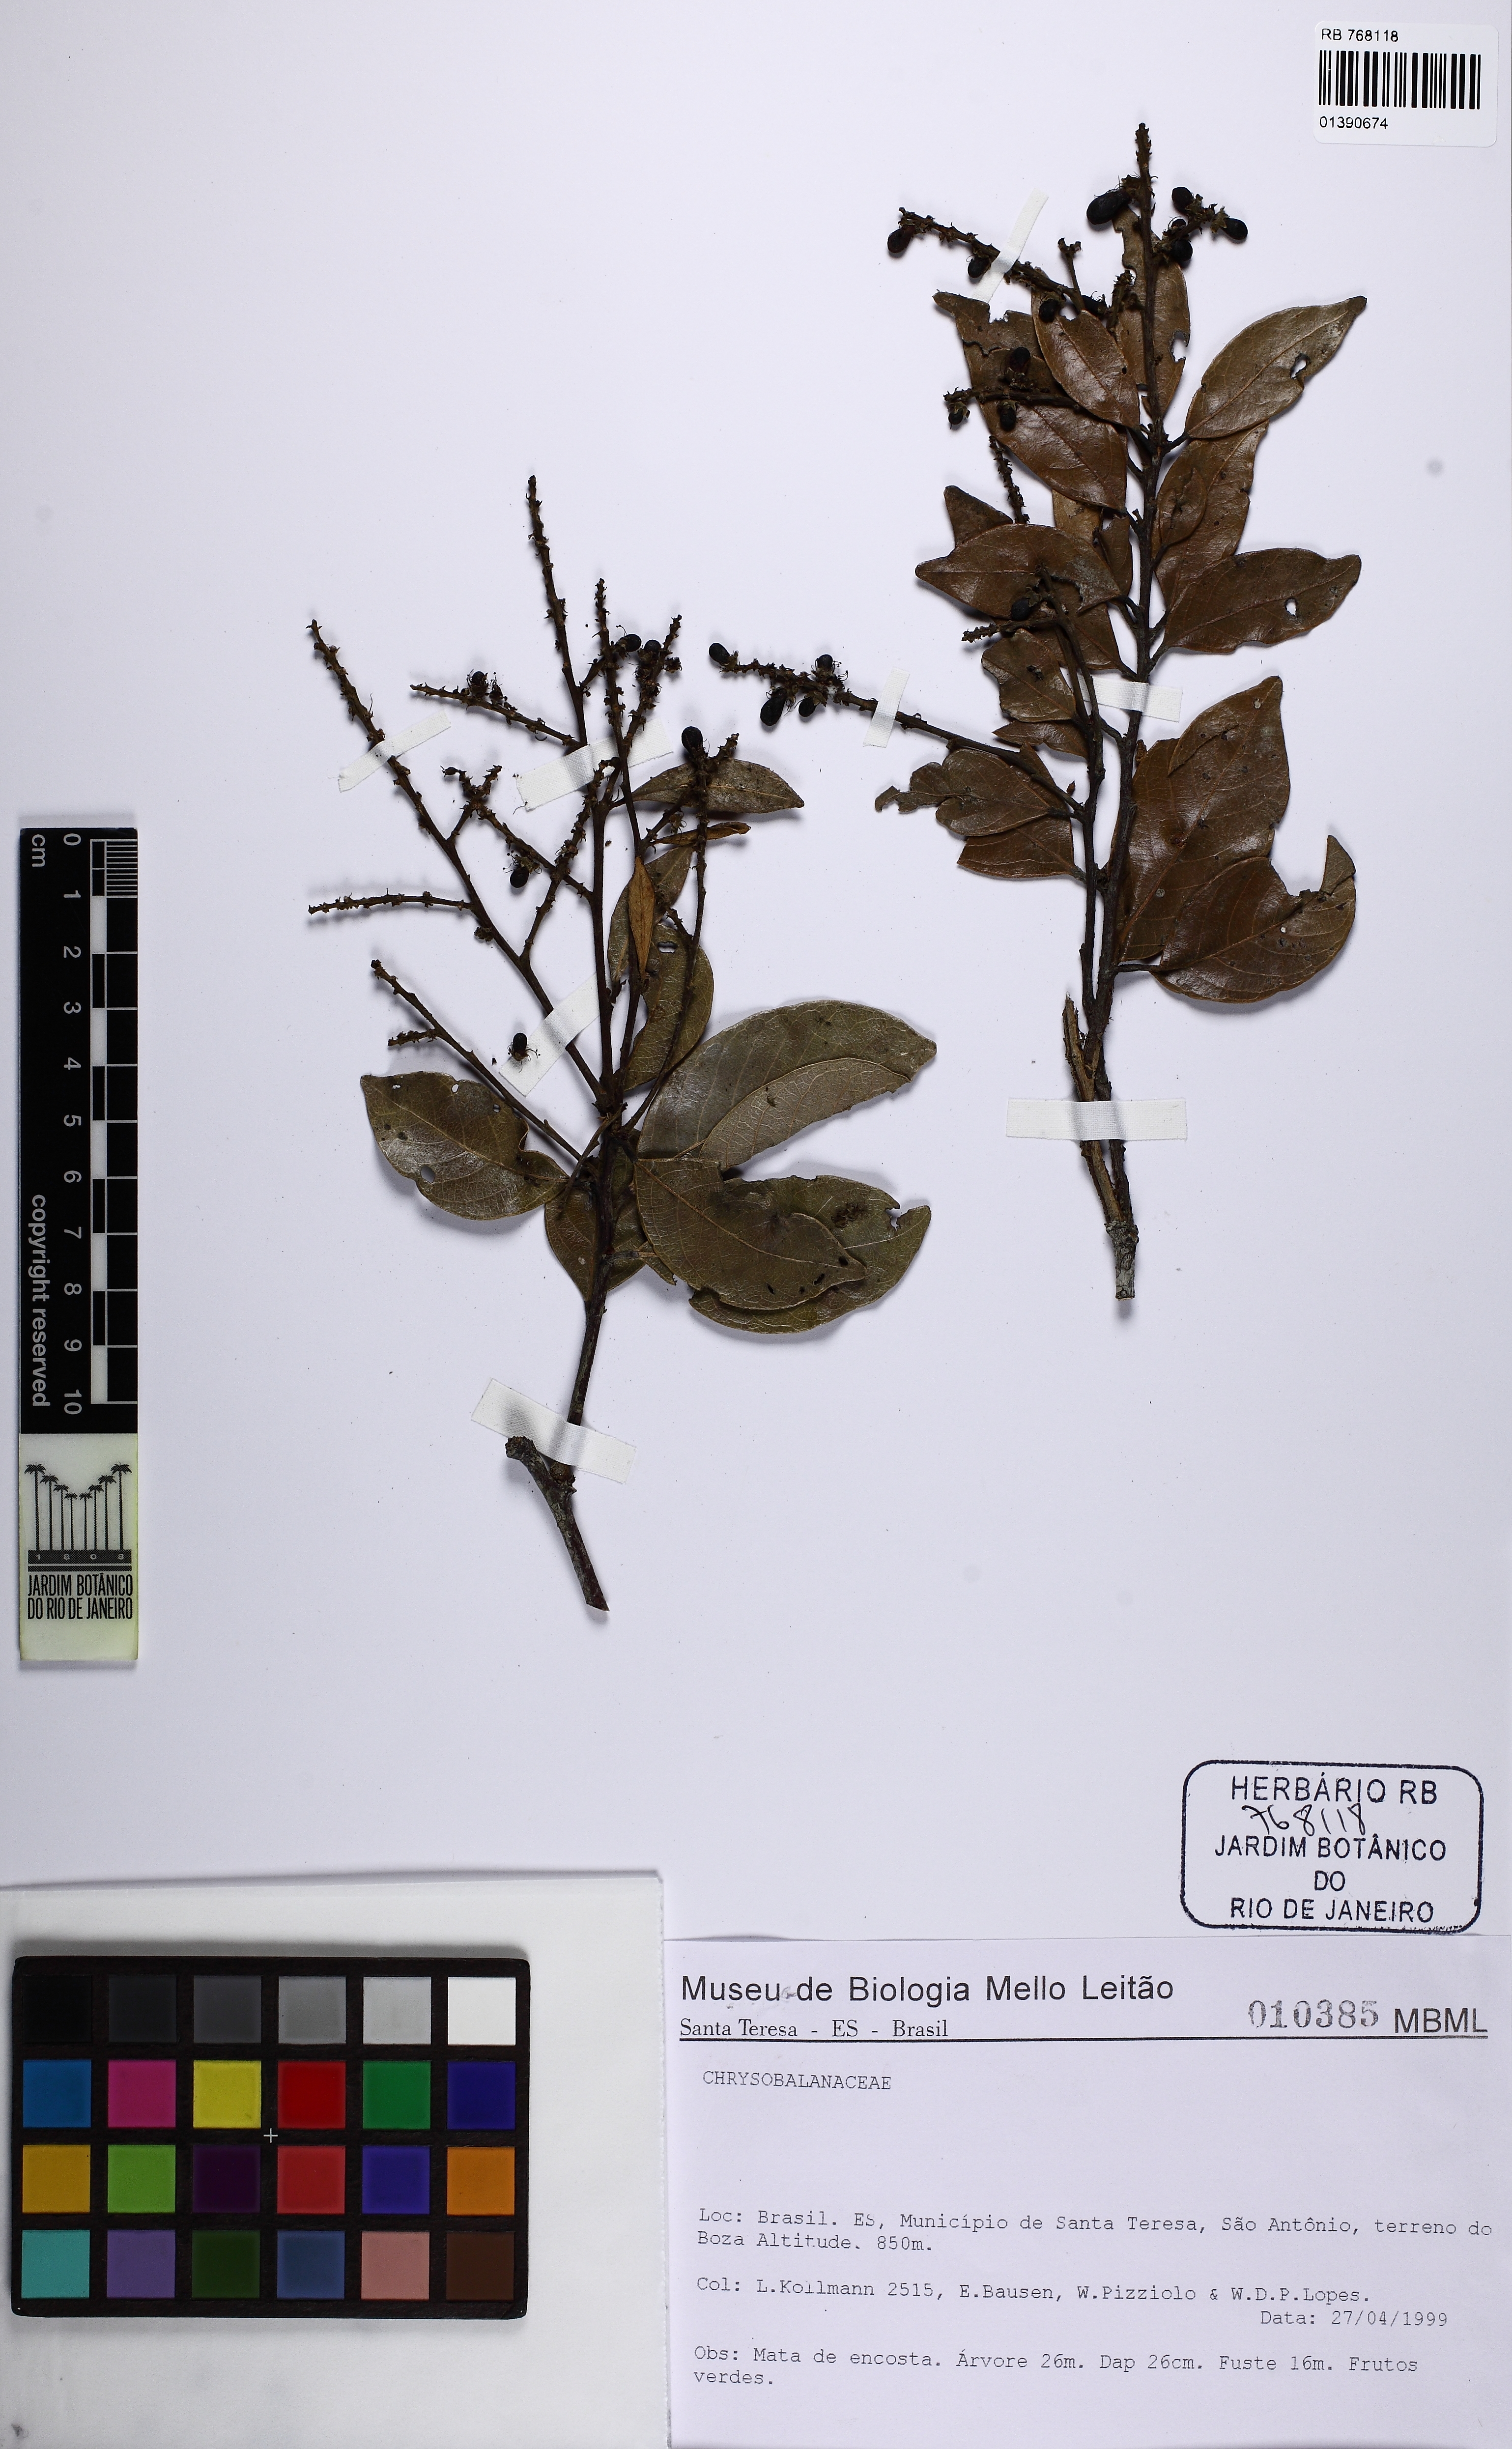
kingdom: Plantae
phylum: Tracheophyta
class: Magnoliopsida
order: Malpighiales
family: Chrysobalanaceae
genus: Leptobalanus
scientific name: Leptobalanus humilis
